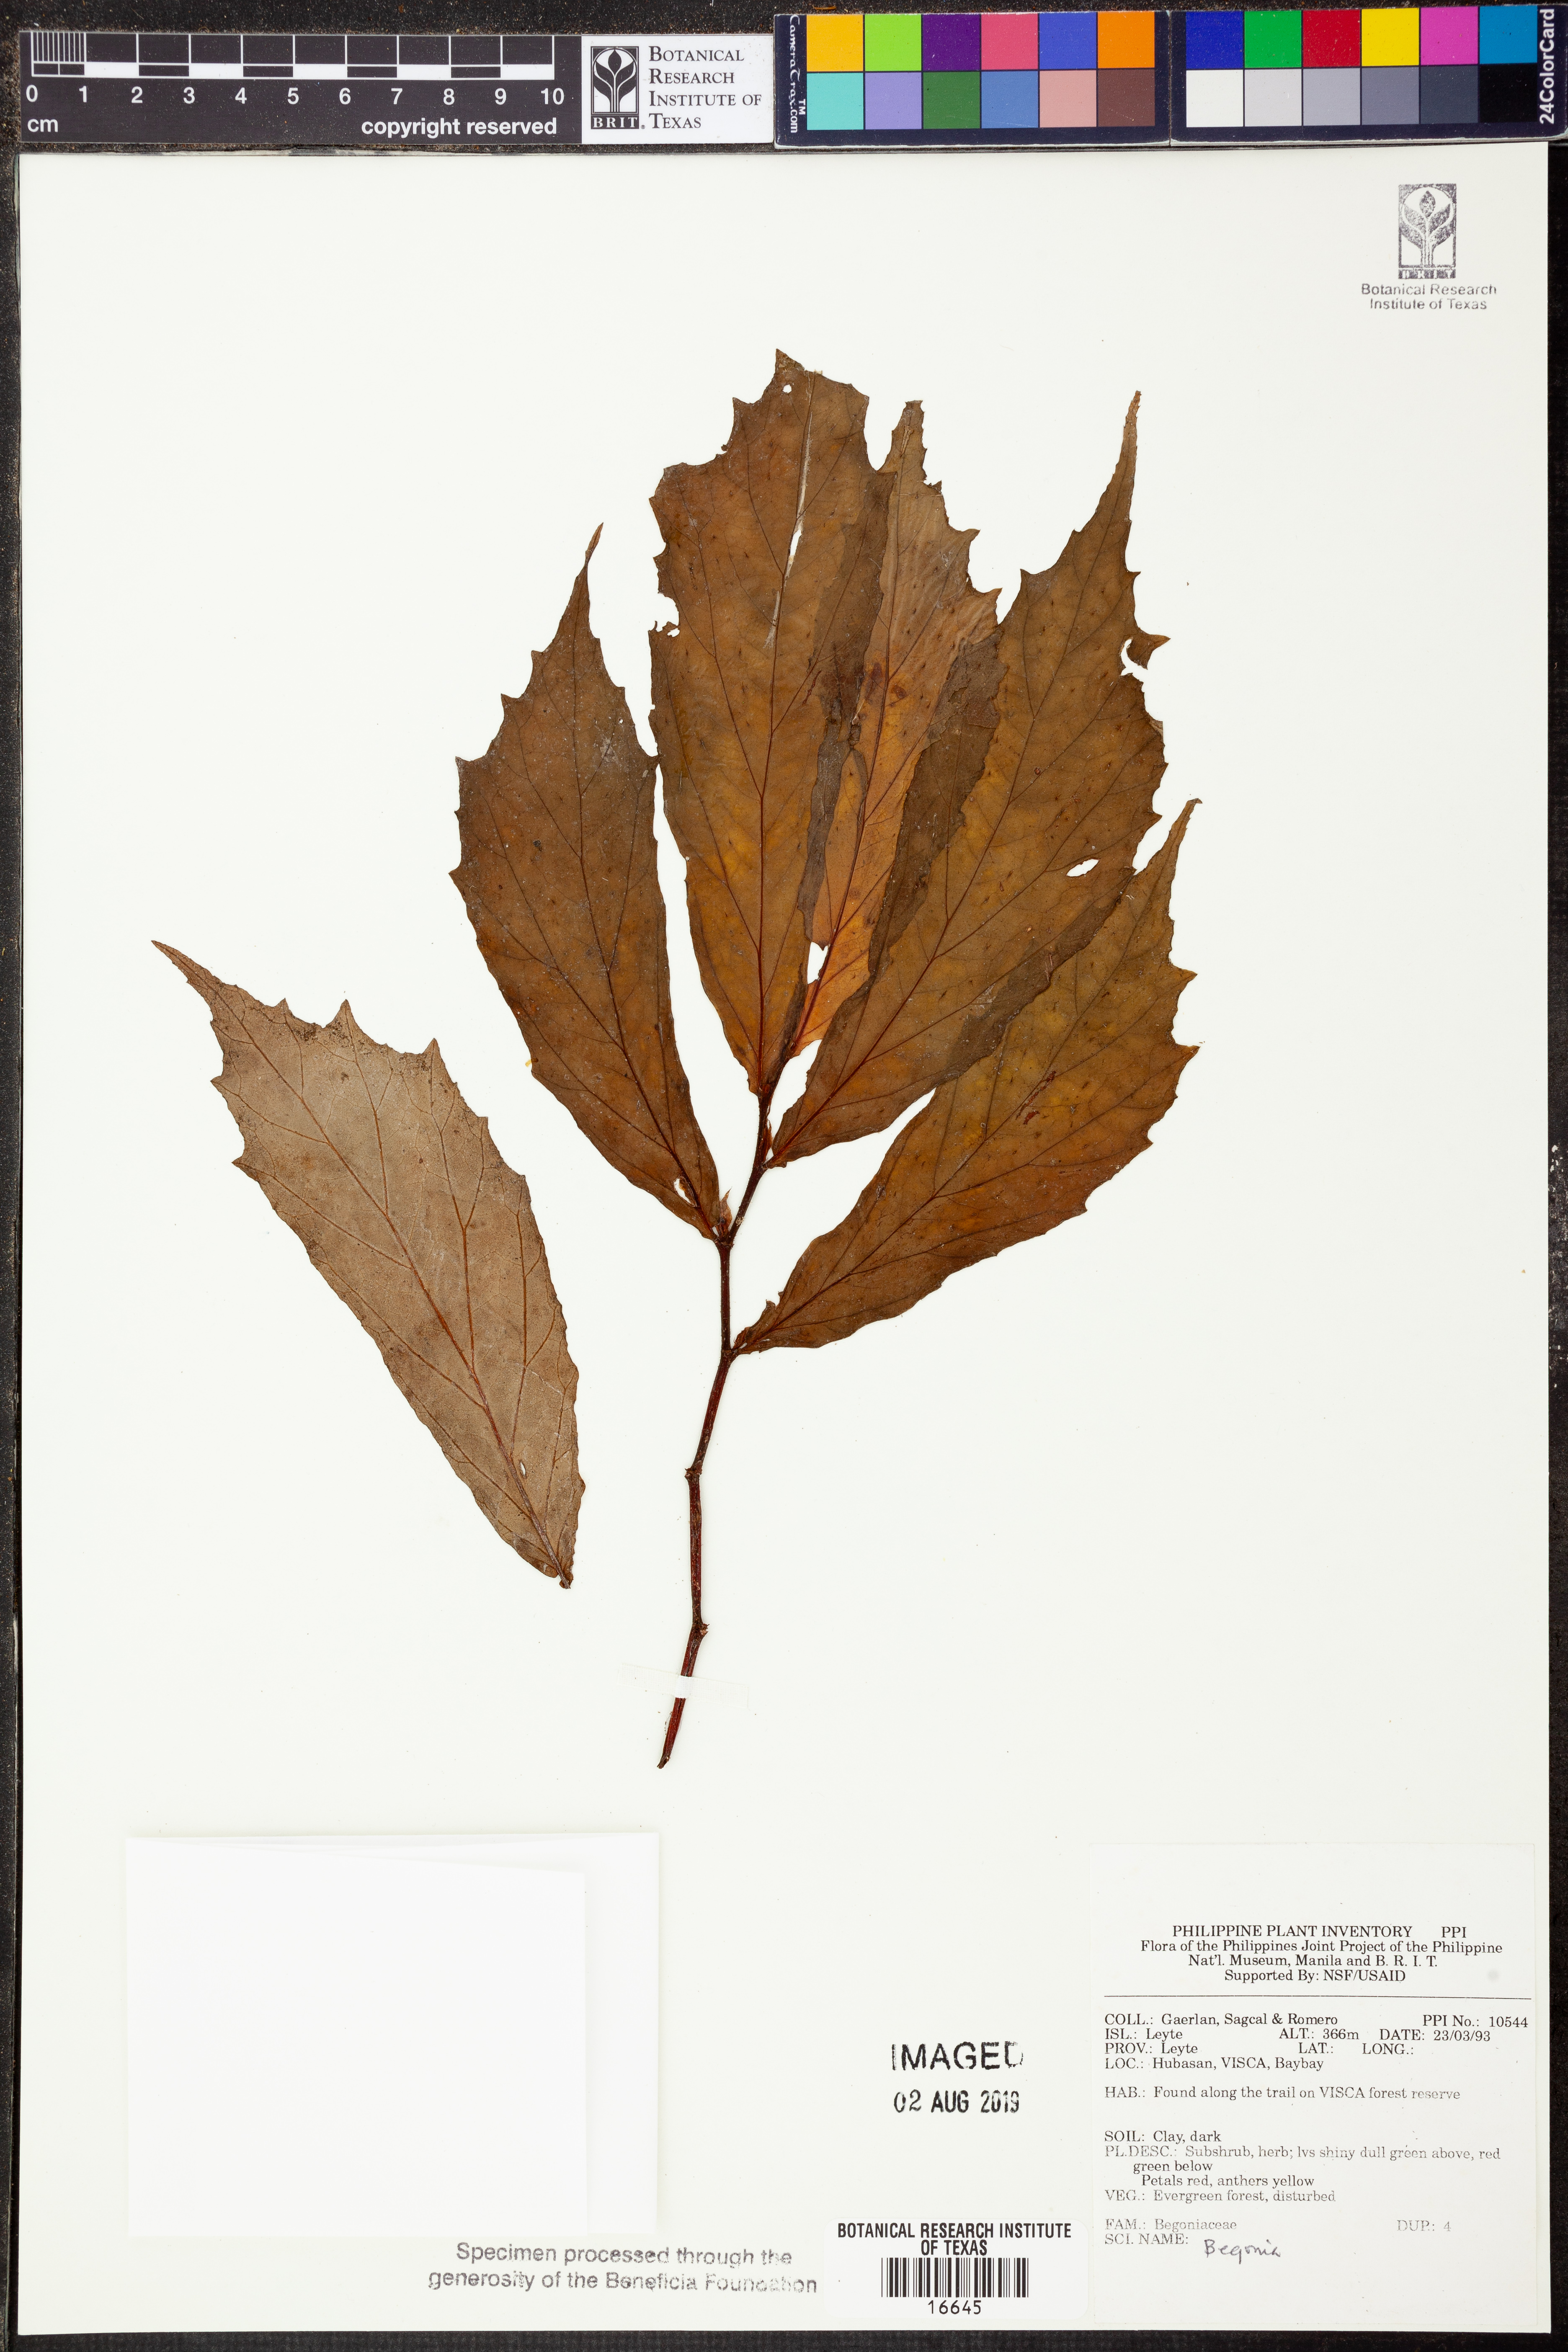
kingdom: Plantae
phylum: Tracheophyta
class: Magnoliopsida
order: Cucurbitales
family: Begoniaceae
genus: Begonia
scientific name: Begonia
